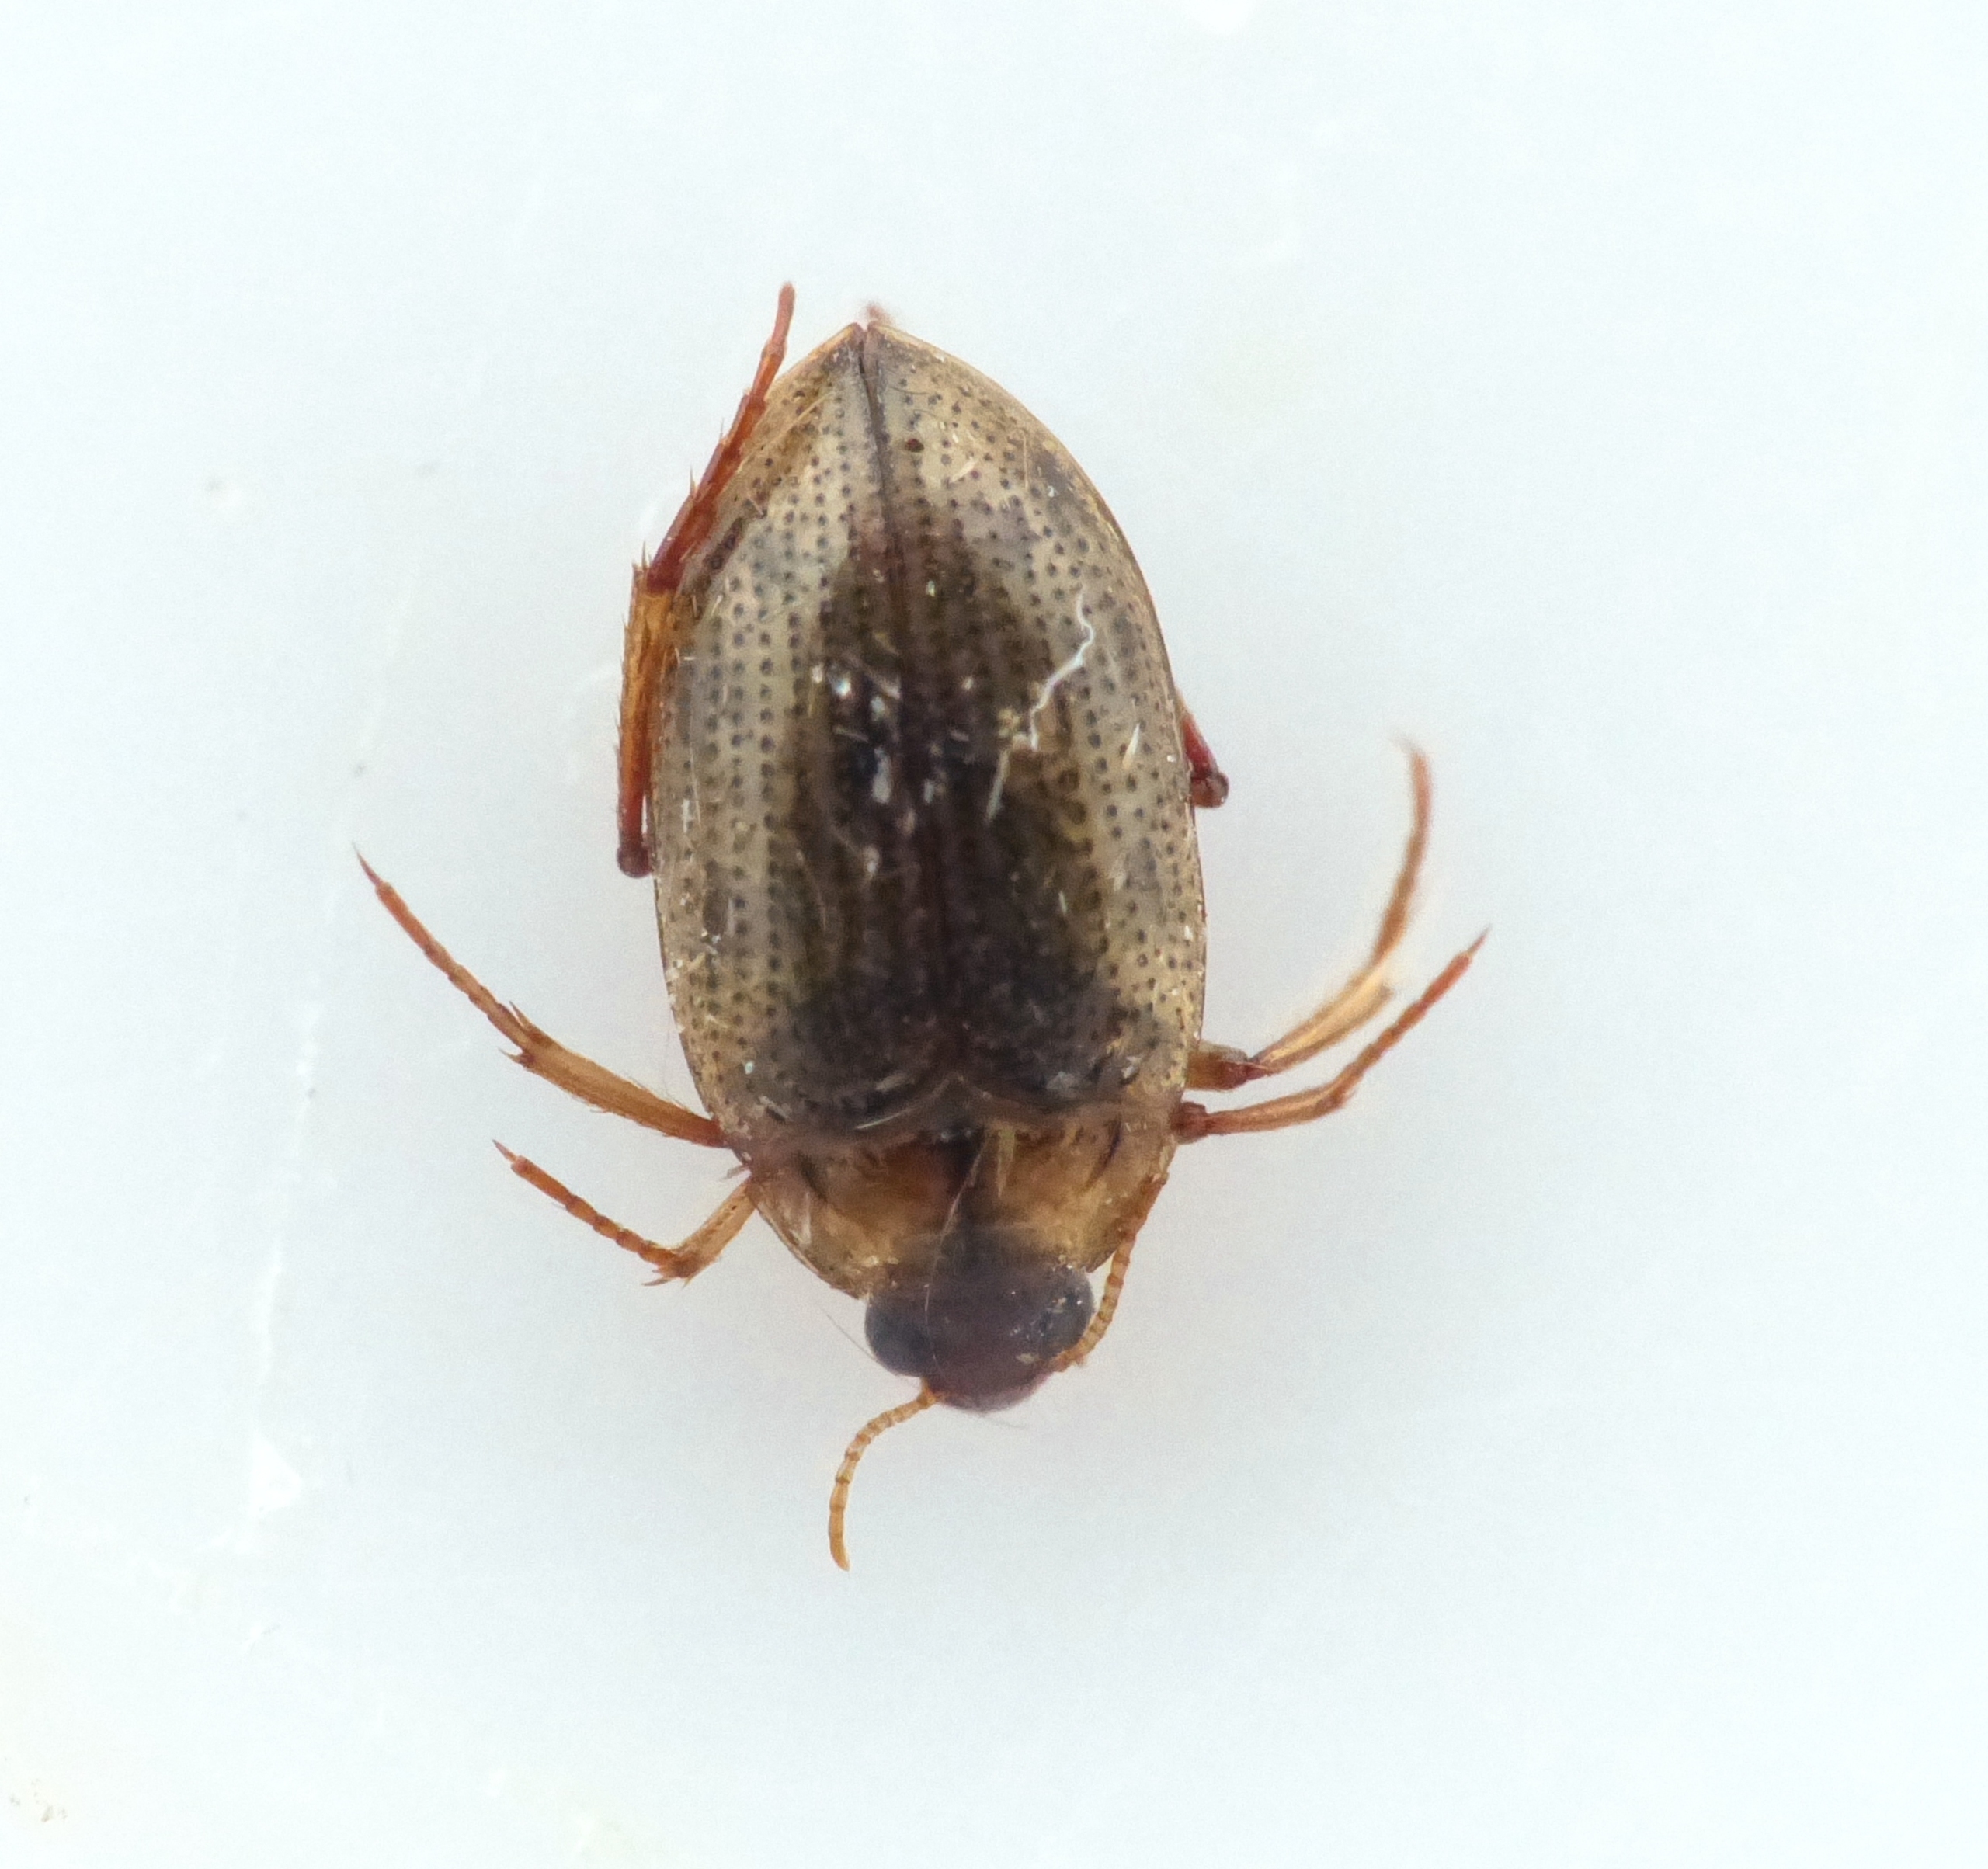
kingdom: Animalia
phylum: Arthropoda
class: Insecta
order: Coleoptera
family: Haliplidae
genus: Haliplus
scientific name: Haliplus lineatocollis
